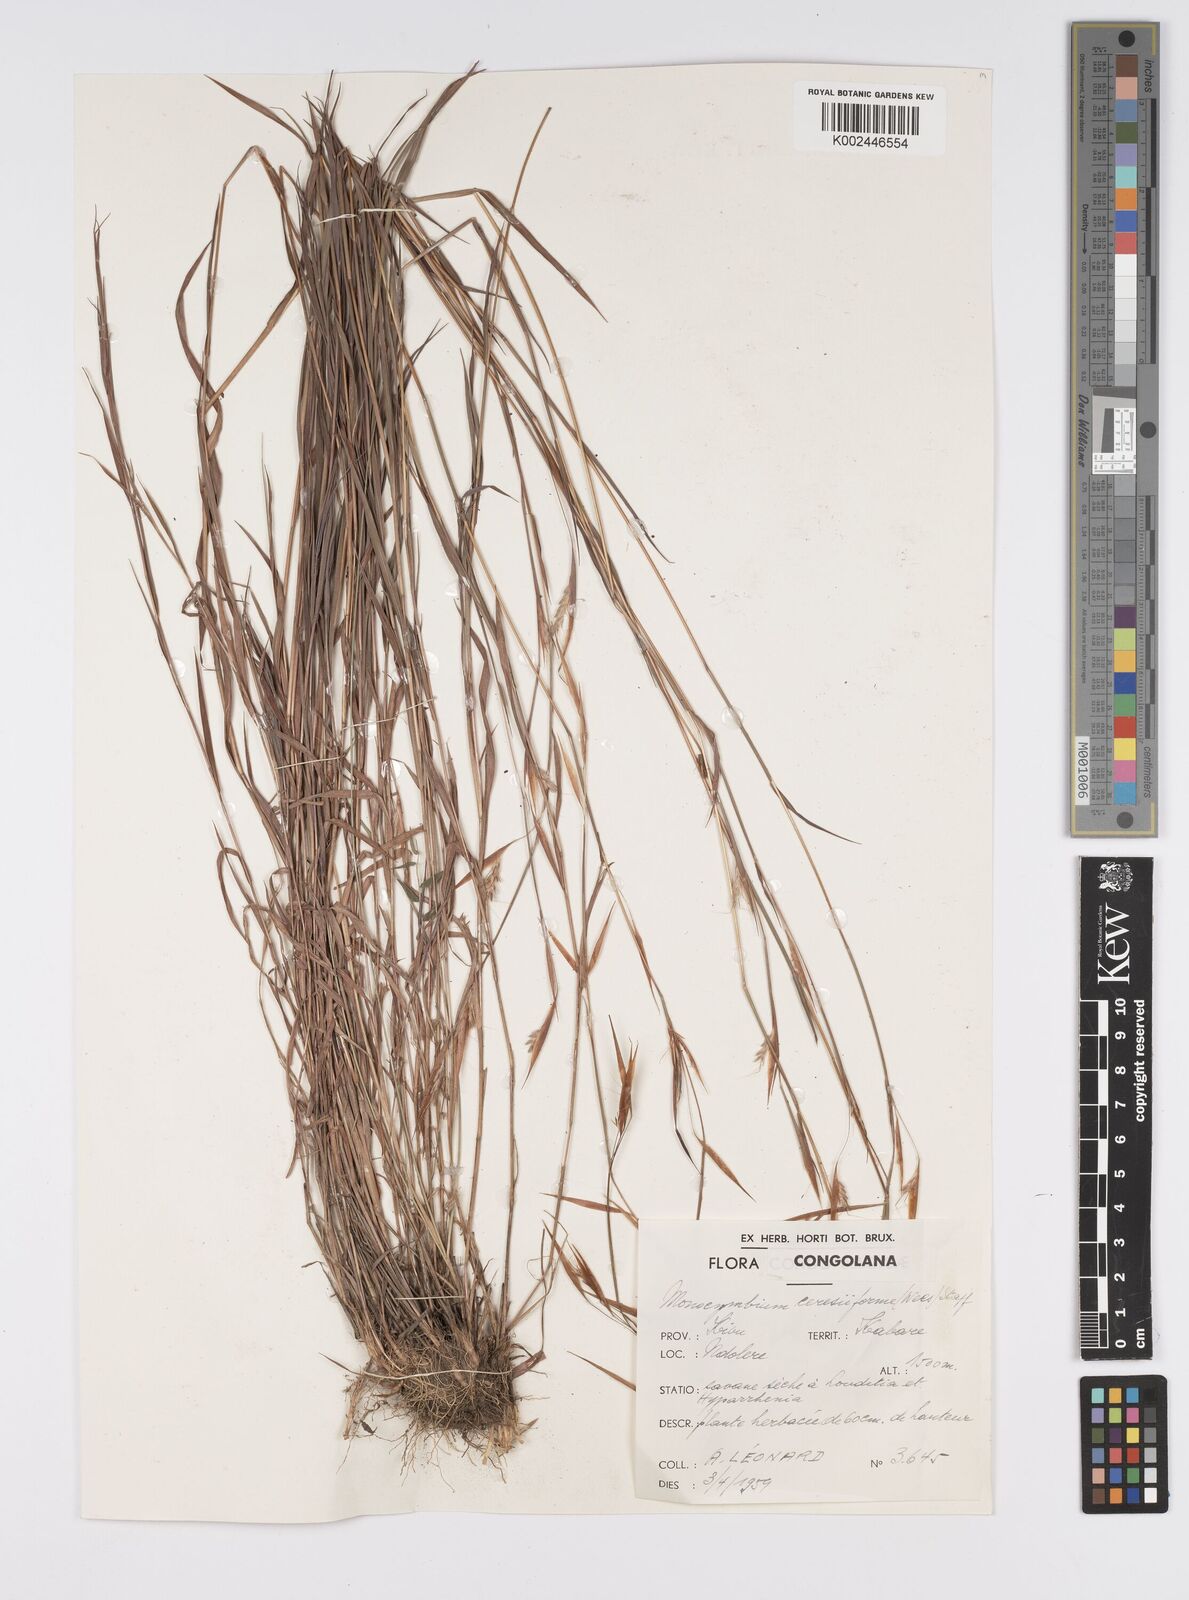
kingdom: Plantae
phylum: Tracheophyta
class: Liliopsida
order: Poales
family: Poaceae
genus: Monocymbium
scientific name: Monocymbium ceresiiforme
